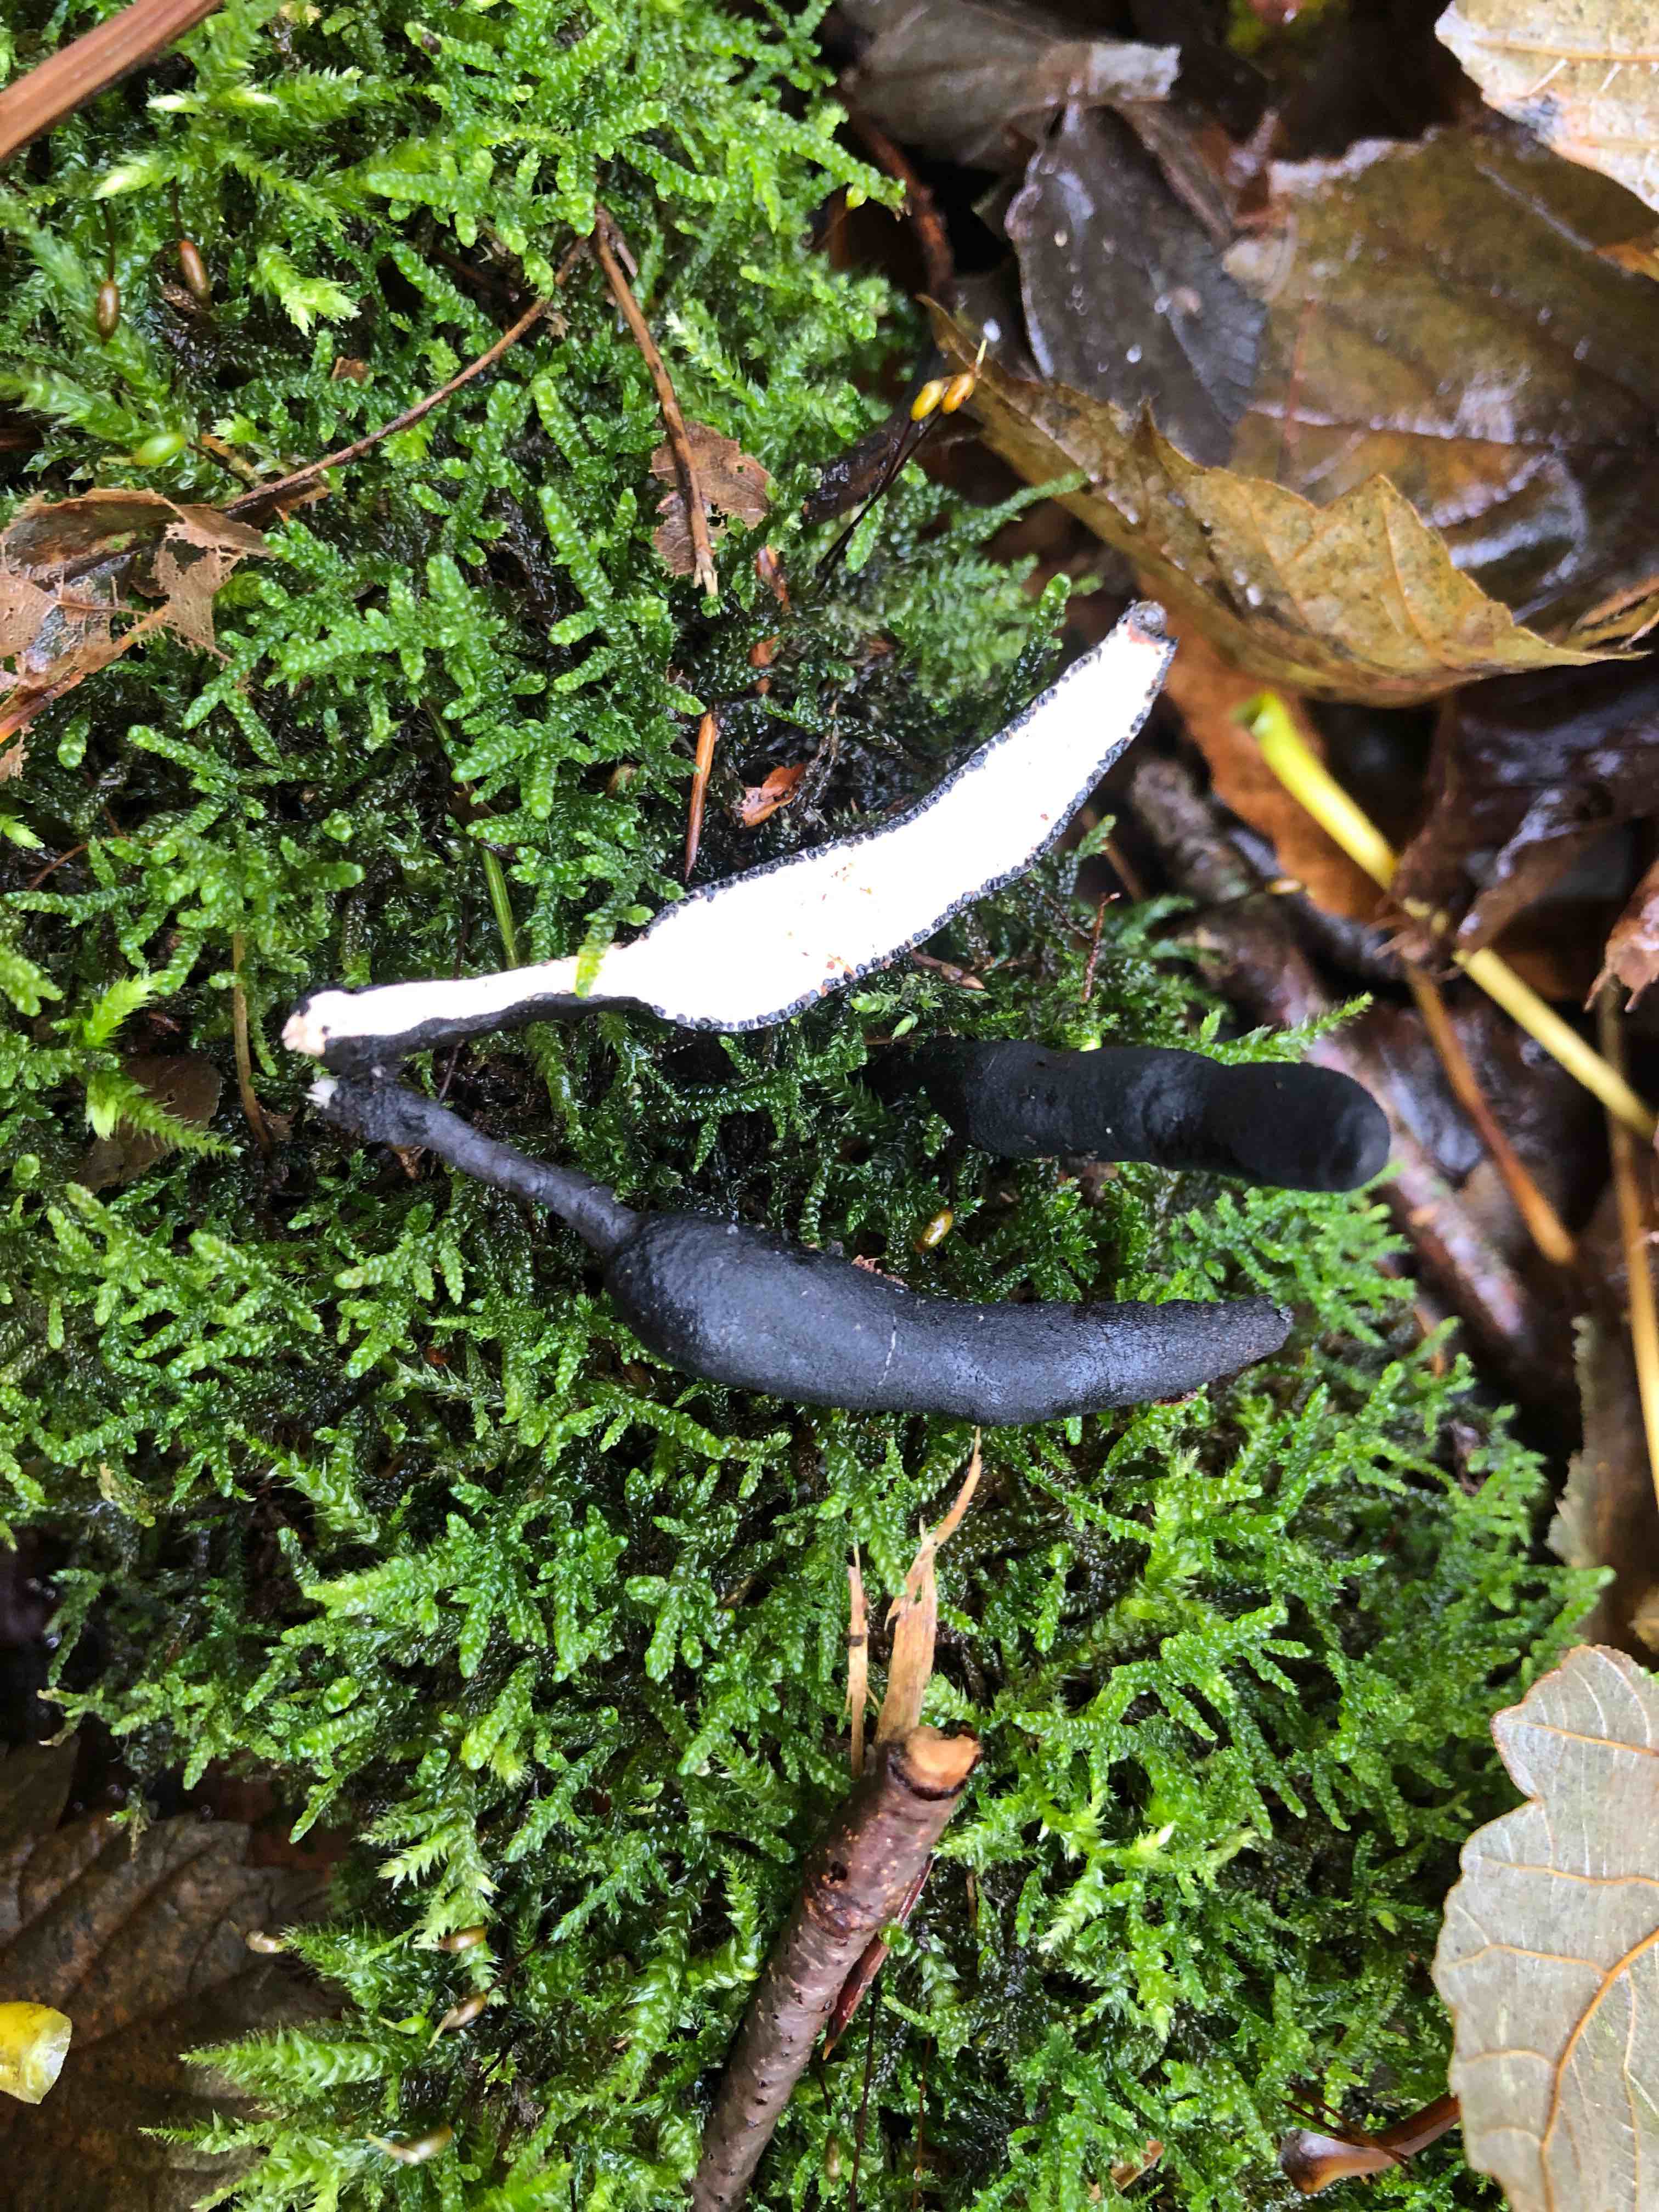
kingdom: Fungi
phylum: Ascomycota
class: Sordariomycetes
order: Xylariales
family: Xylariaceae
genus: Xylaria
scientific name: Xylaria longipes
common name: slank stødsvamp
